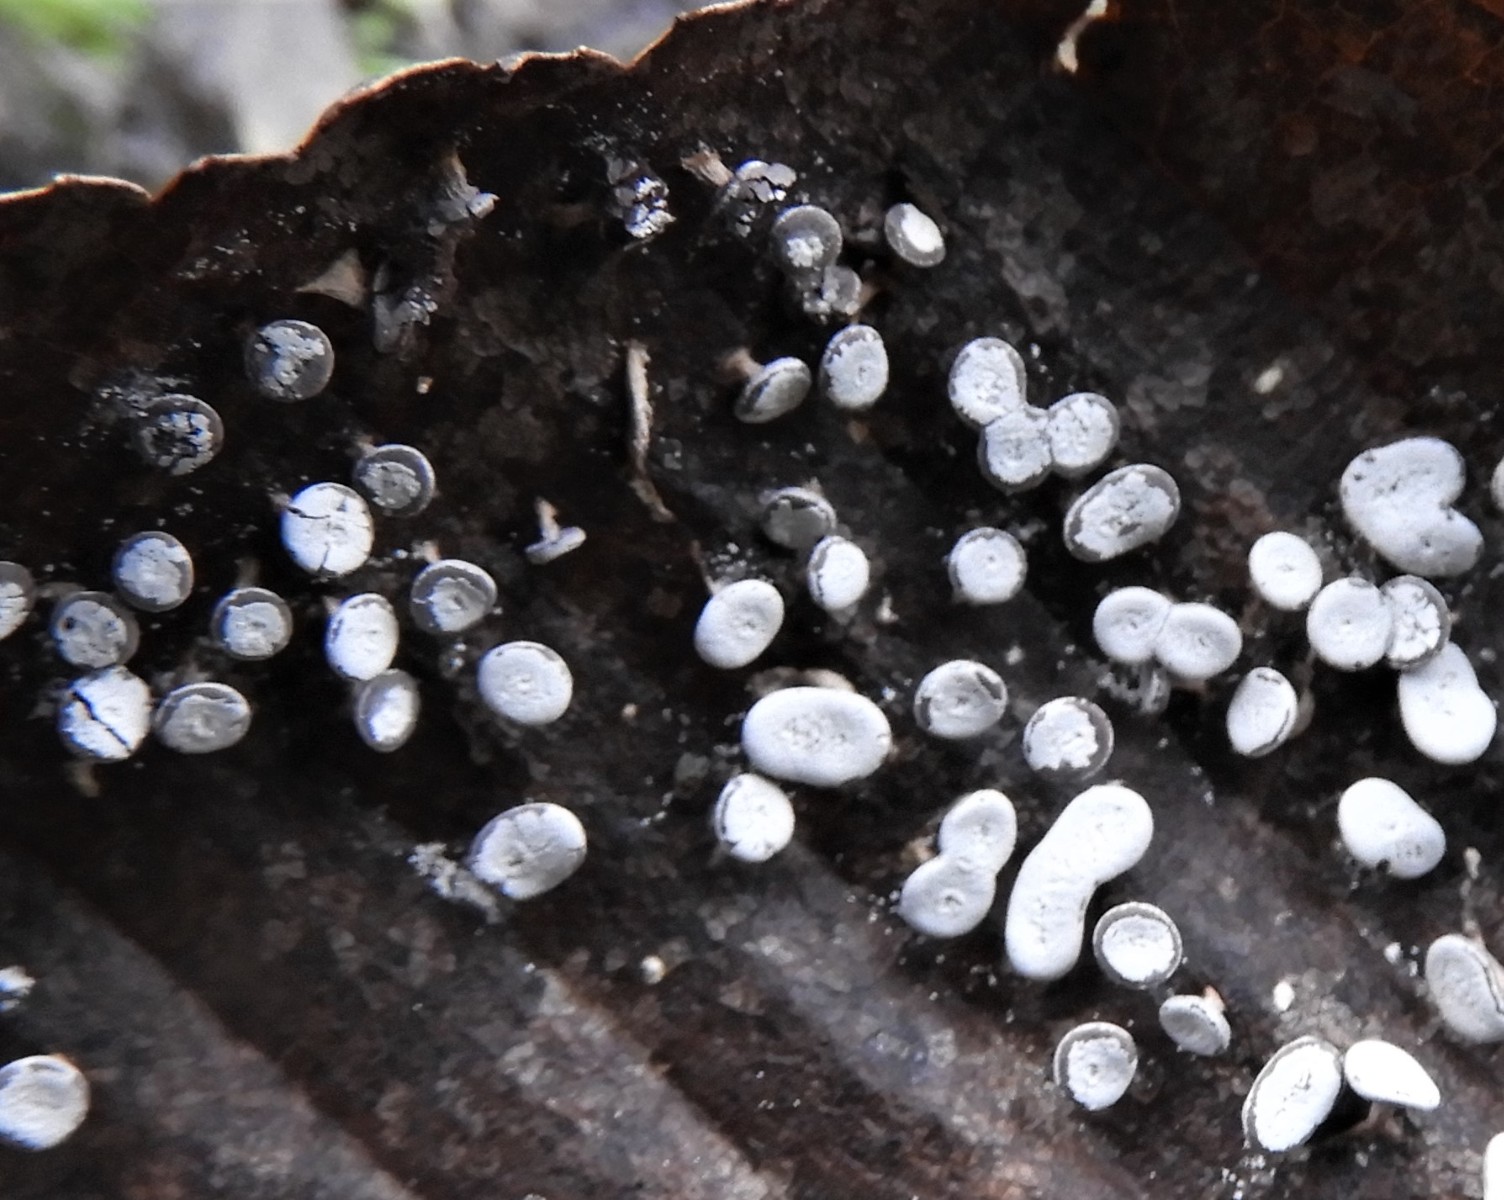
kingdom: Protozoa
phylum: Mycetozoa
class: Myxomycetes
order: Physarales
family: Didymiaceae
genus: Diderma
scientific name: Diderma hemisphaericum
